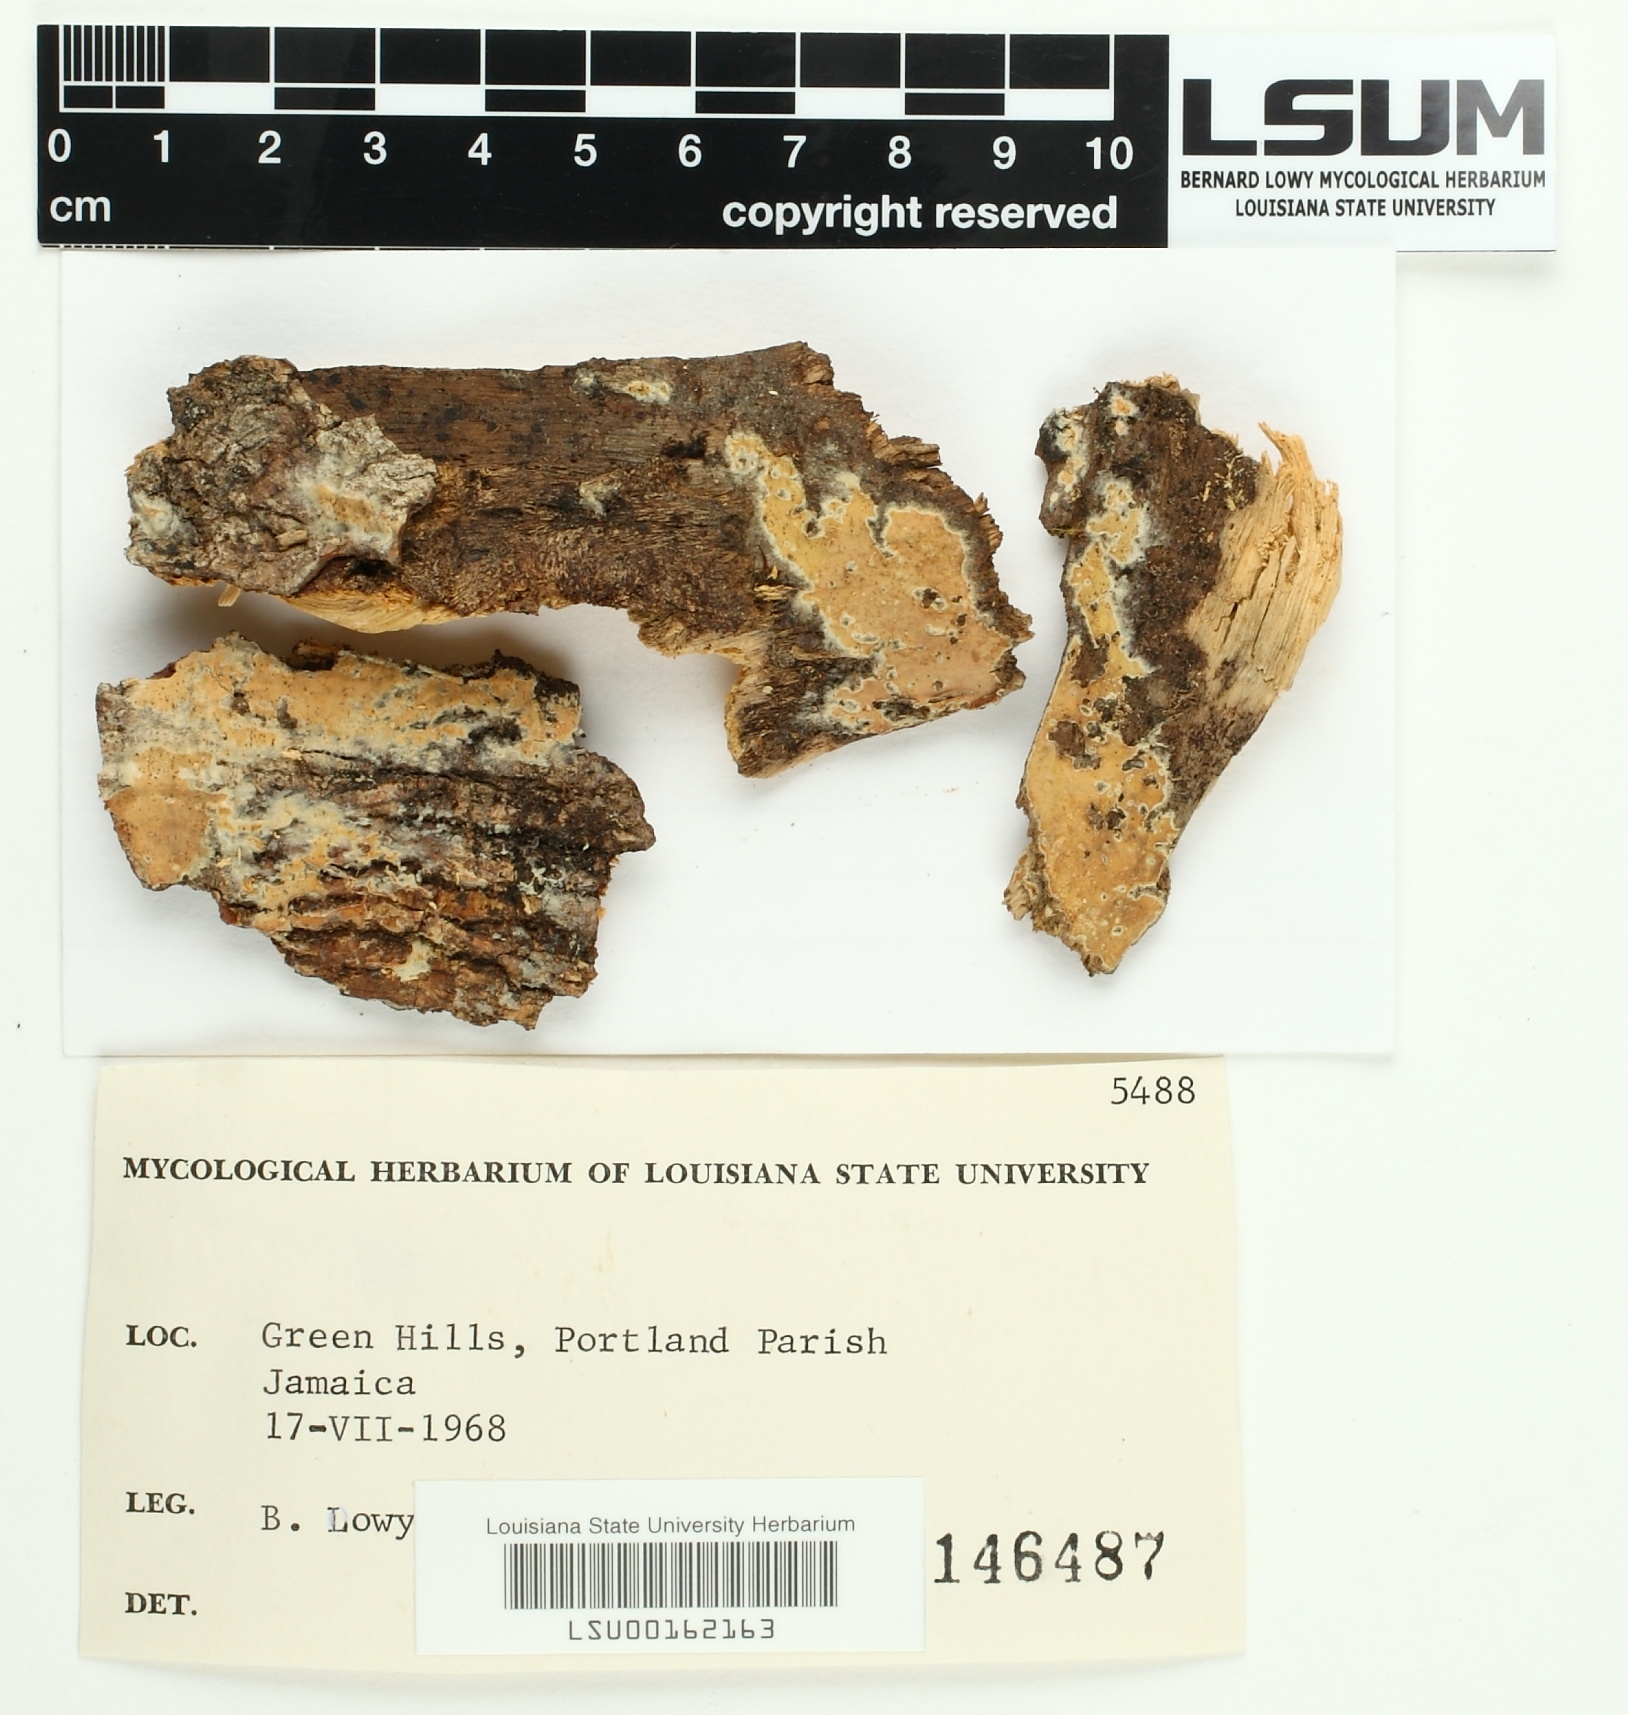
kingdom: Fungi
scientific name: Fungi
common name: Fungi
